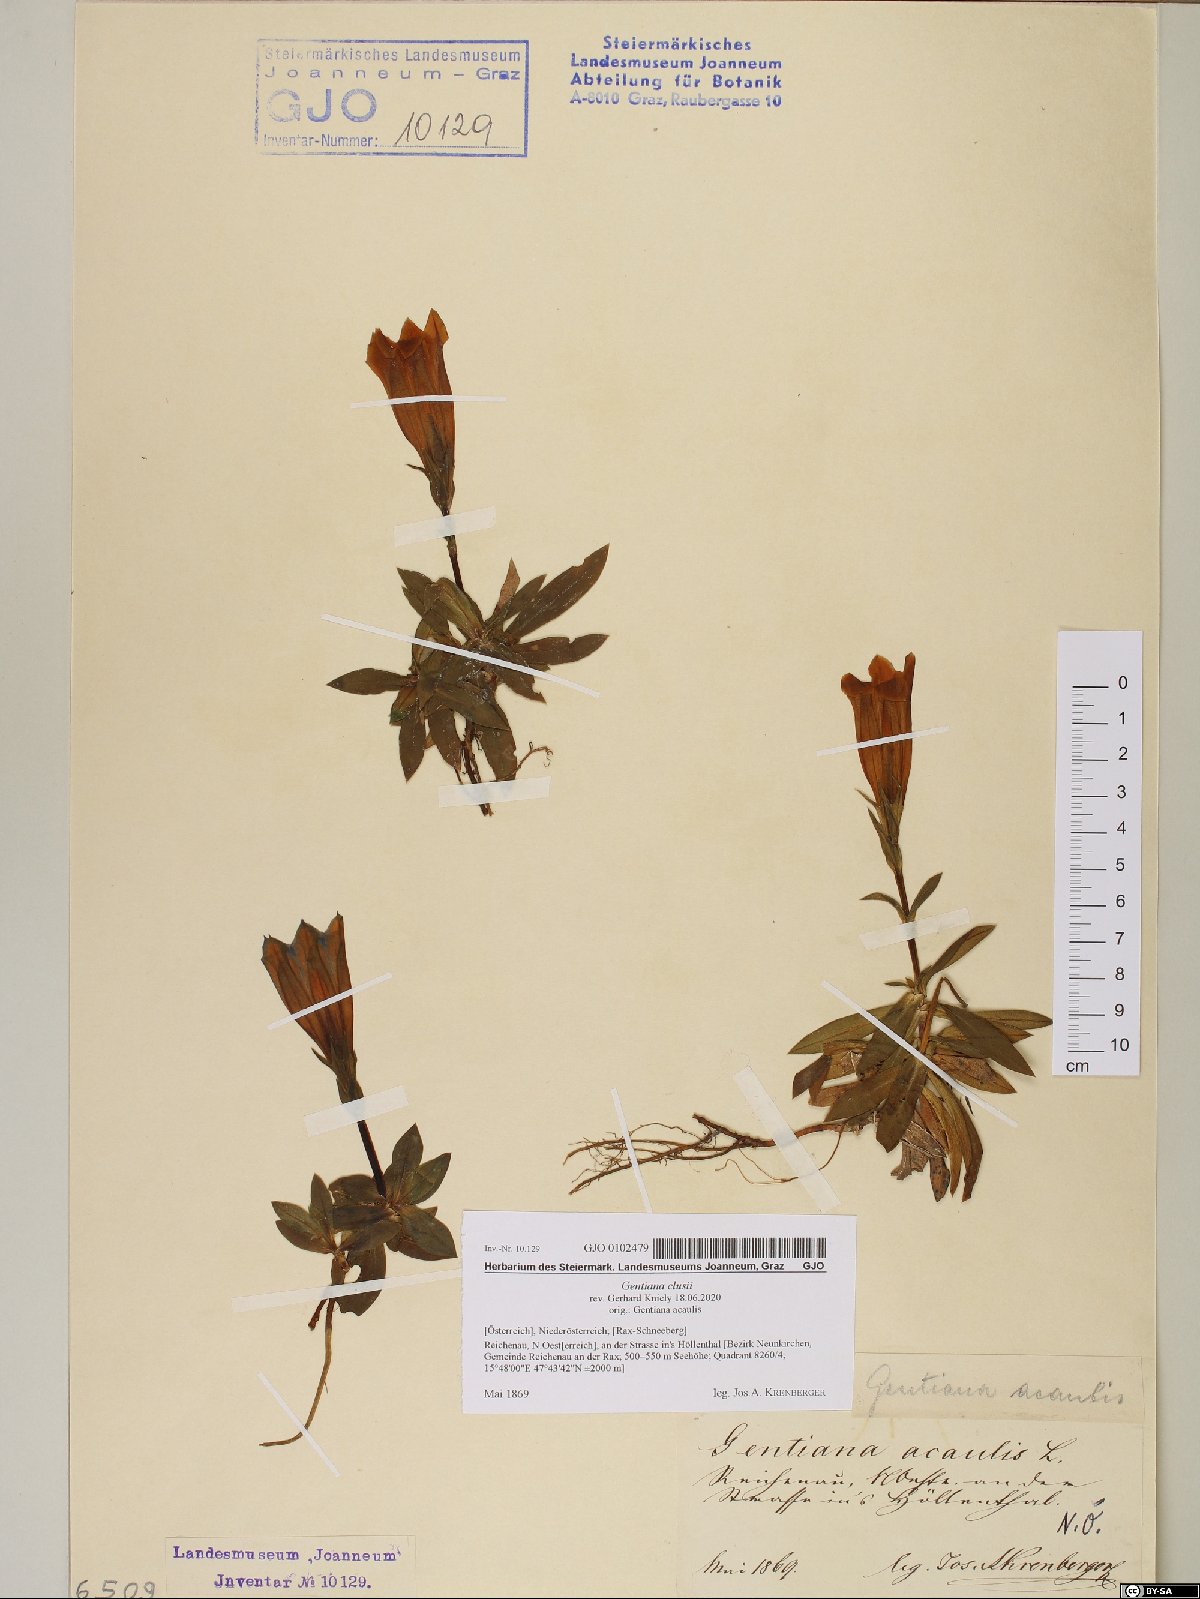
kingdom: Plantae
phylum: Tracheophyta
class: Magnoliopsida
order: Gentianales
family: Gentianaceae
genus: Gentiana
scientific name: Gentiana clusii
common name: Trumpet gentian
